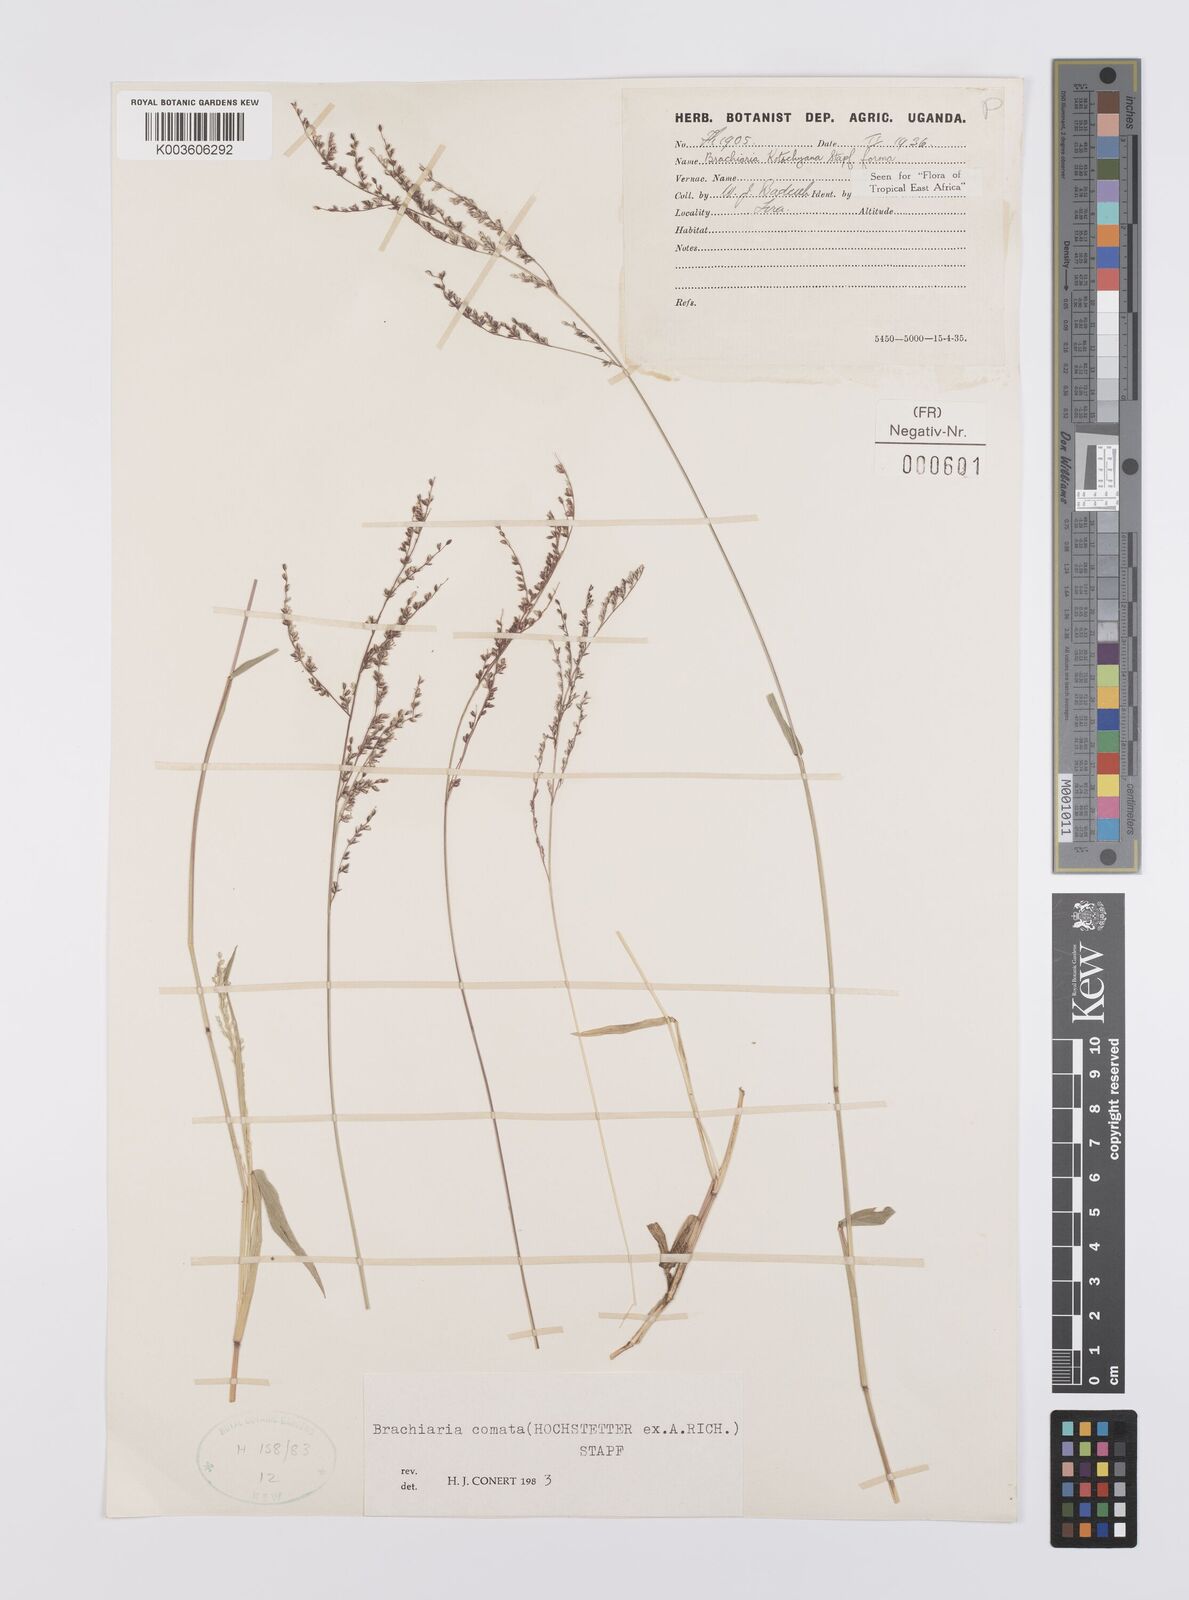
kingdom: Plantae
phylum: Tracheophyta
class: Liliopsida
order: Poales
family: Poaceae
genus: Urochloa
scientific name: Urochloa comata
